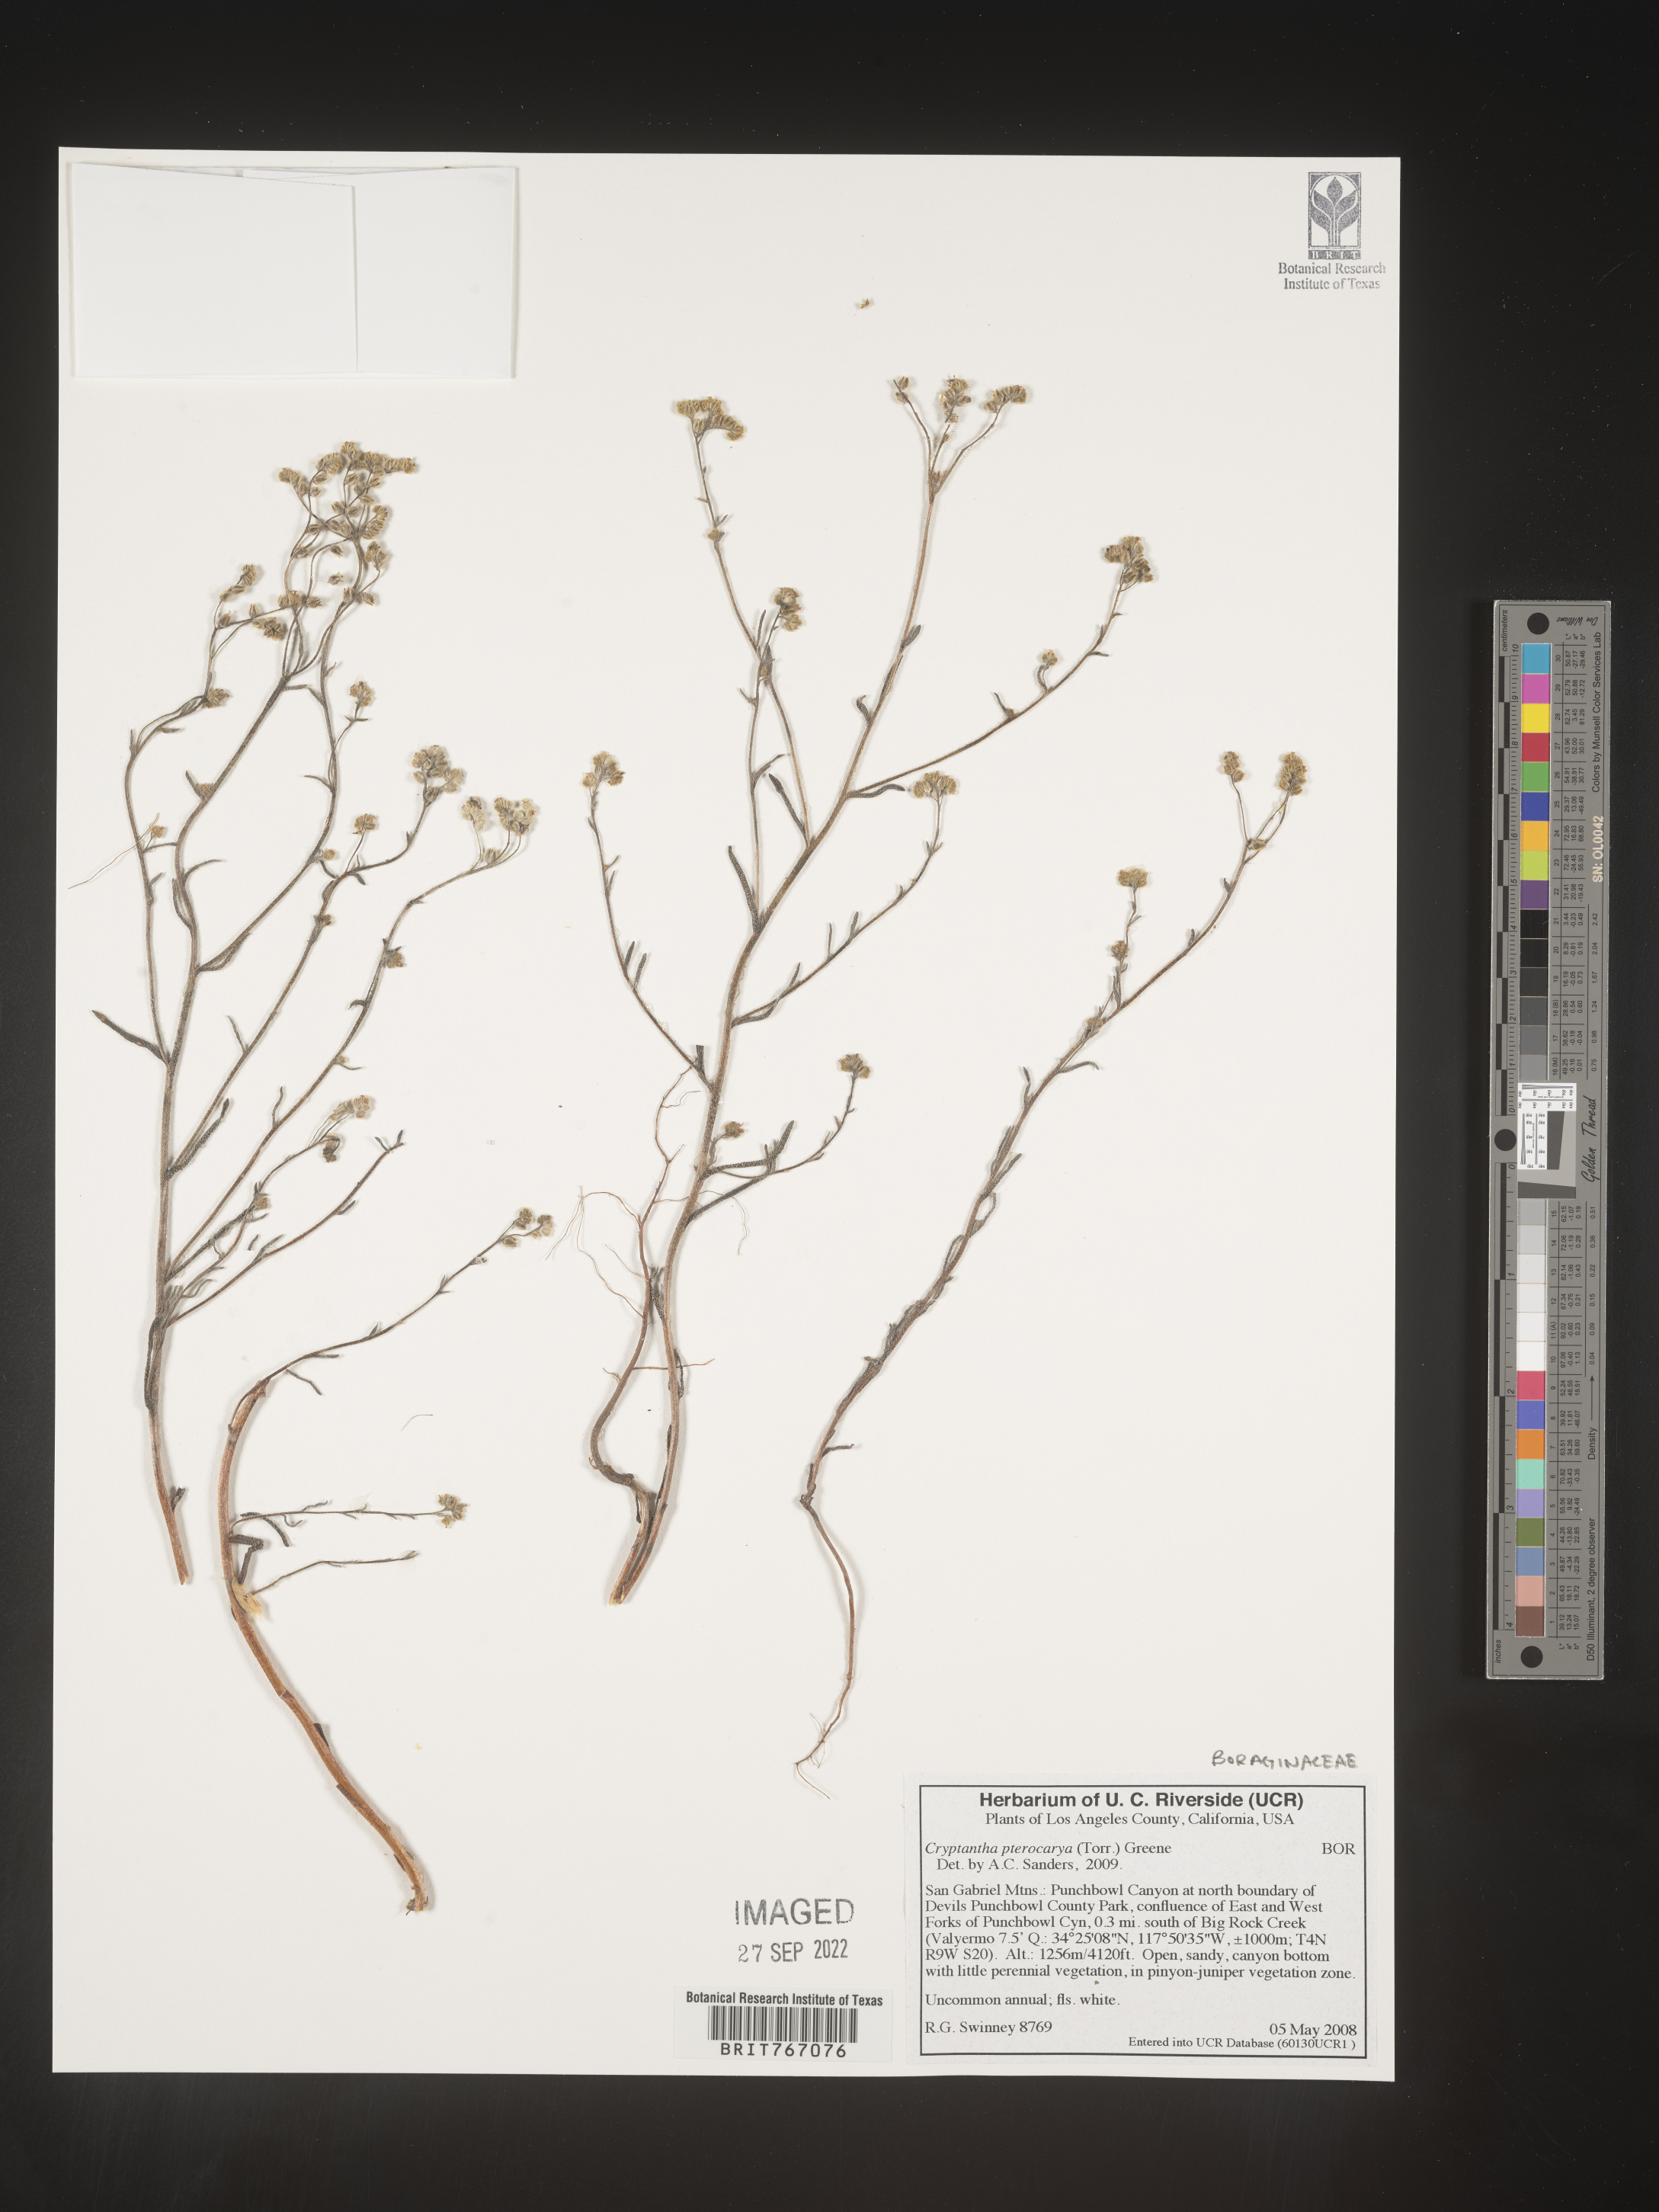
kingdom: Plantae
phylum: Tracheophyta
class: Magnoliopsida
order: Boraginales
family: Boraginaceae
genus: Cryptantha
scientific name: Cryptantha pterocarya
